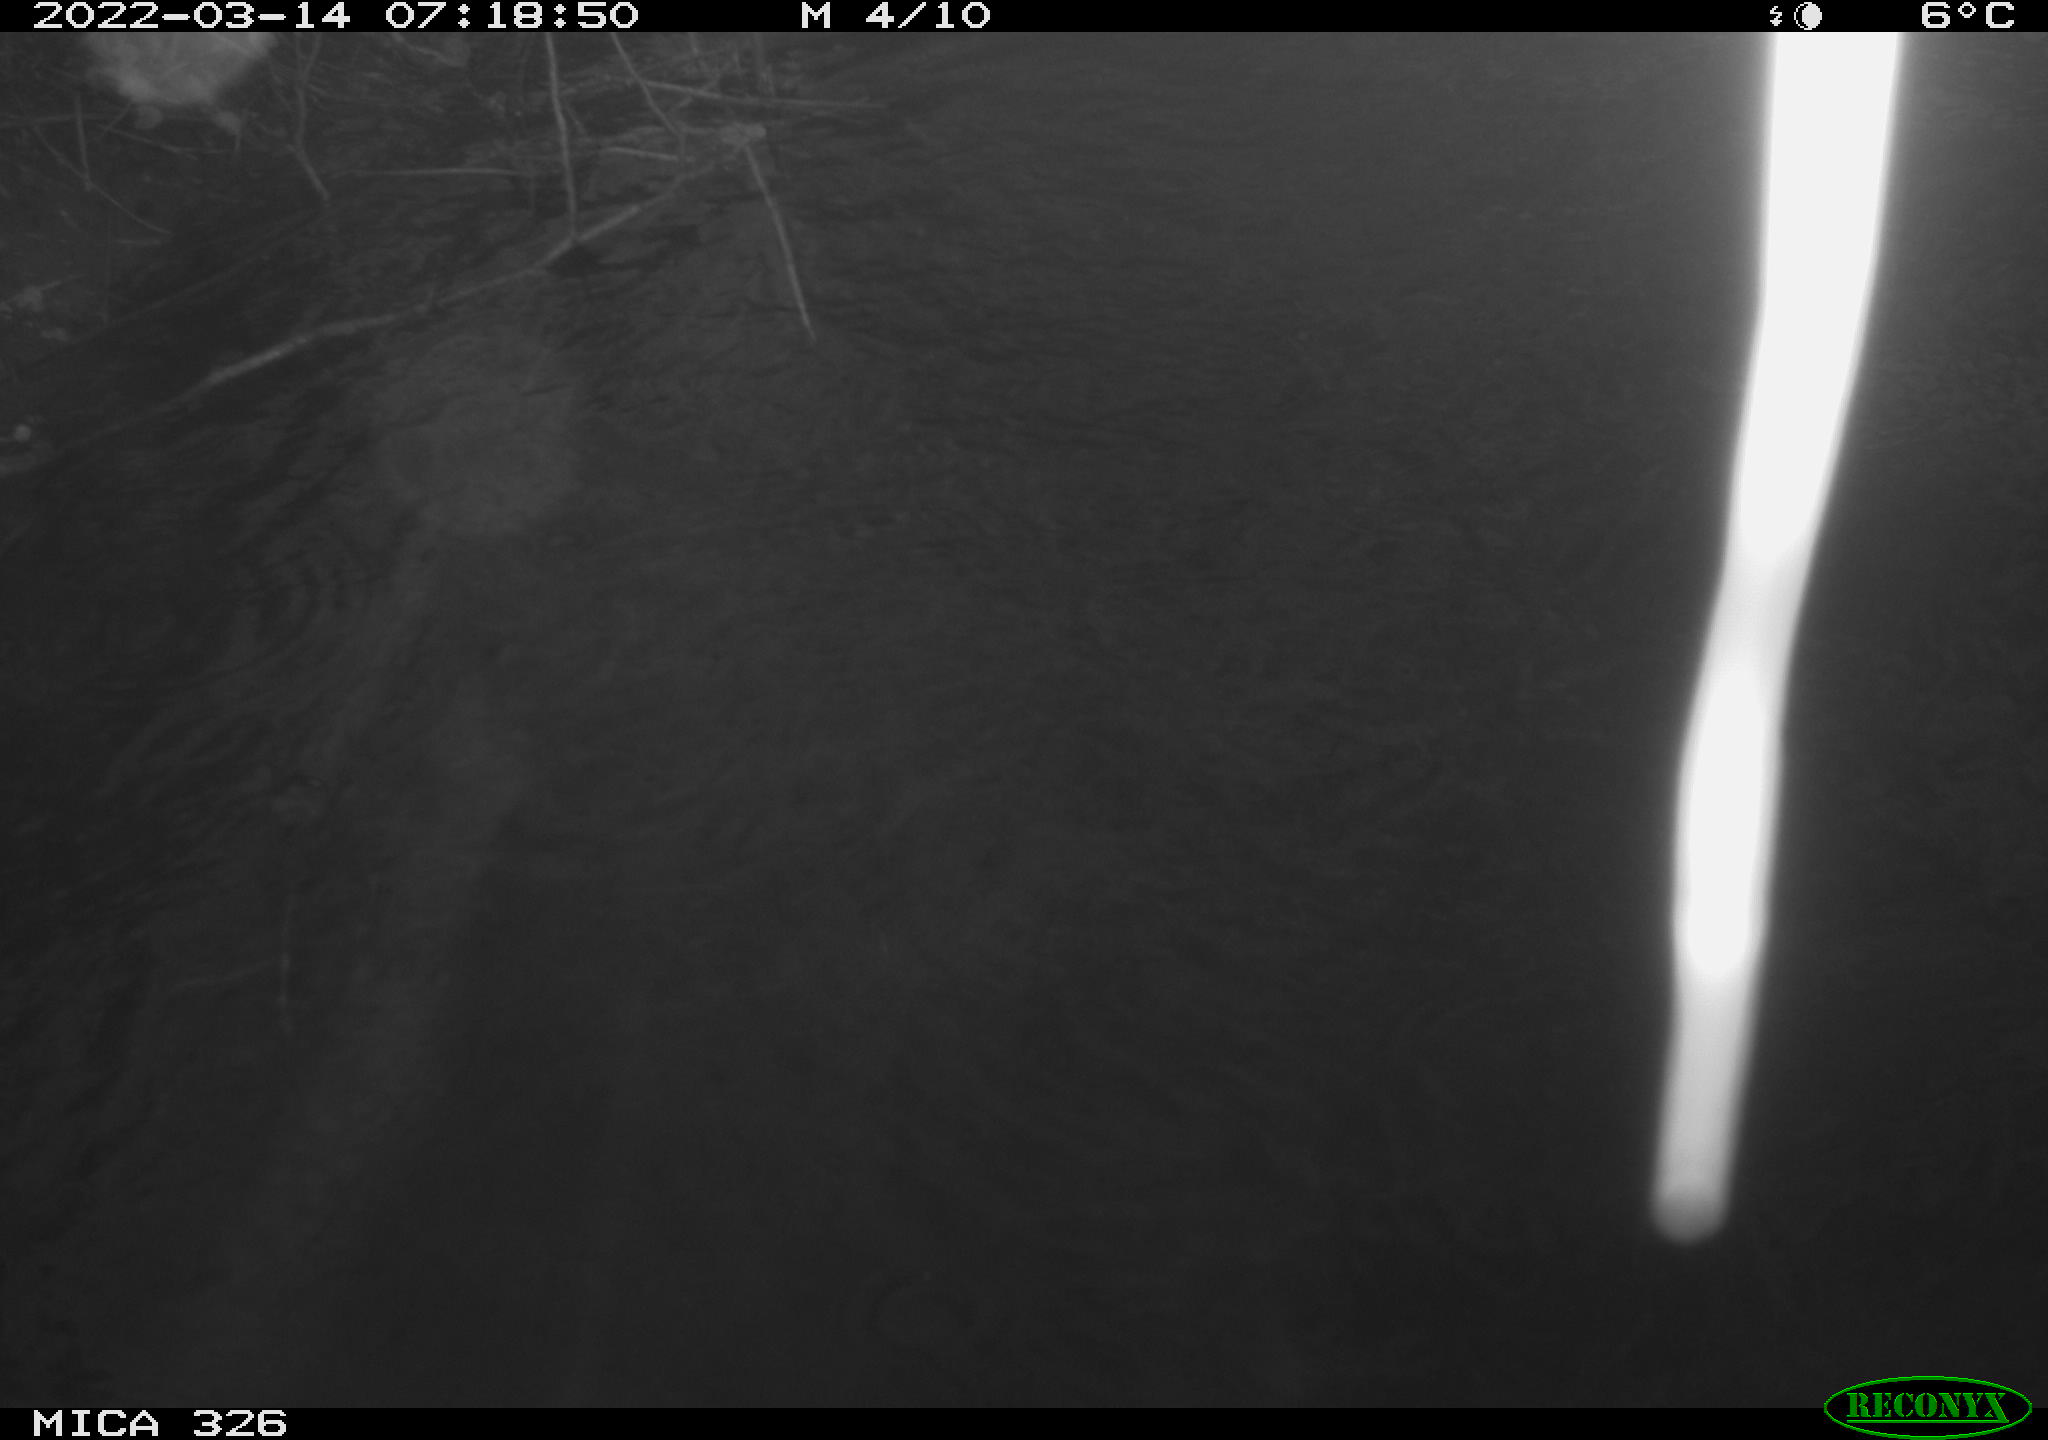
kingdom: Animalia
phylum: Chordata
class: Mammalia
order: Rodentia
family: Cricetidae
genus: Ondatra
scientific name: Ondatra zibethicus
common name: Muskrat
